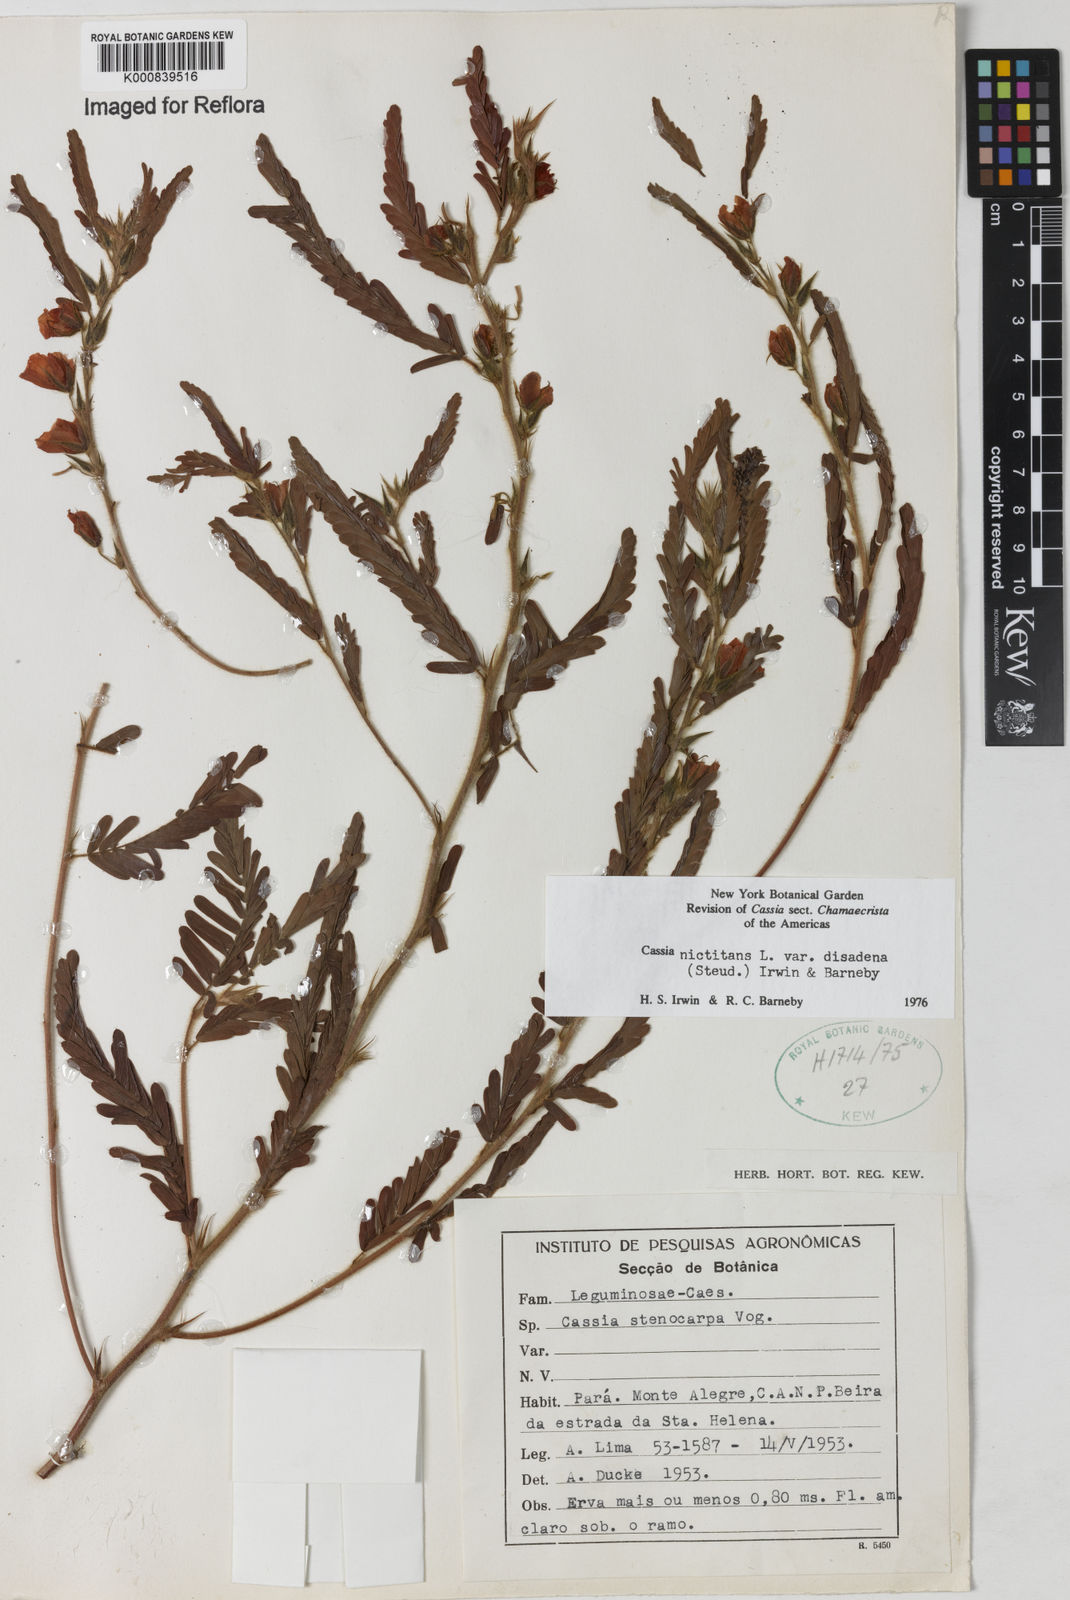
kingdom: Plantae
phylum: Tracheophyta
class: Magnoliopsida
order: Fabales
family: Fabaceae
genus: Chamaecrista
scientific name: Chamaecrista nictitans
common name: Sensitive cassia
